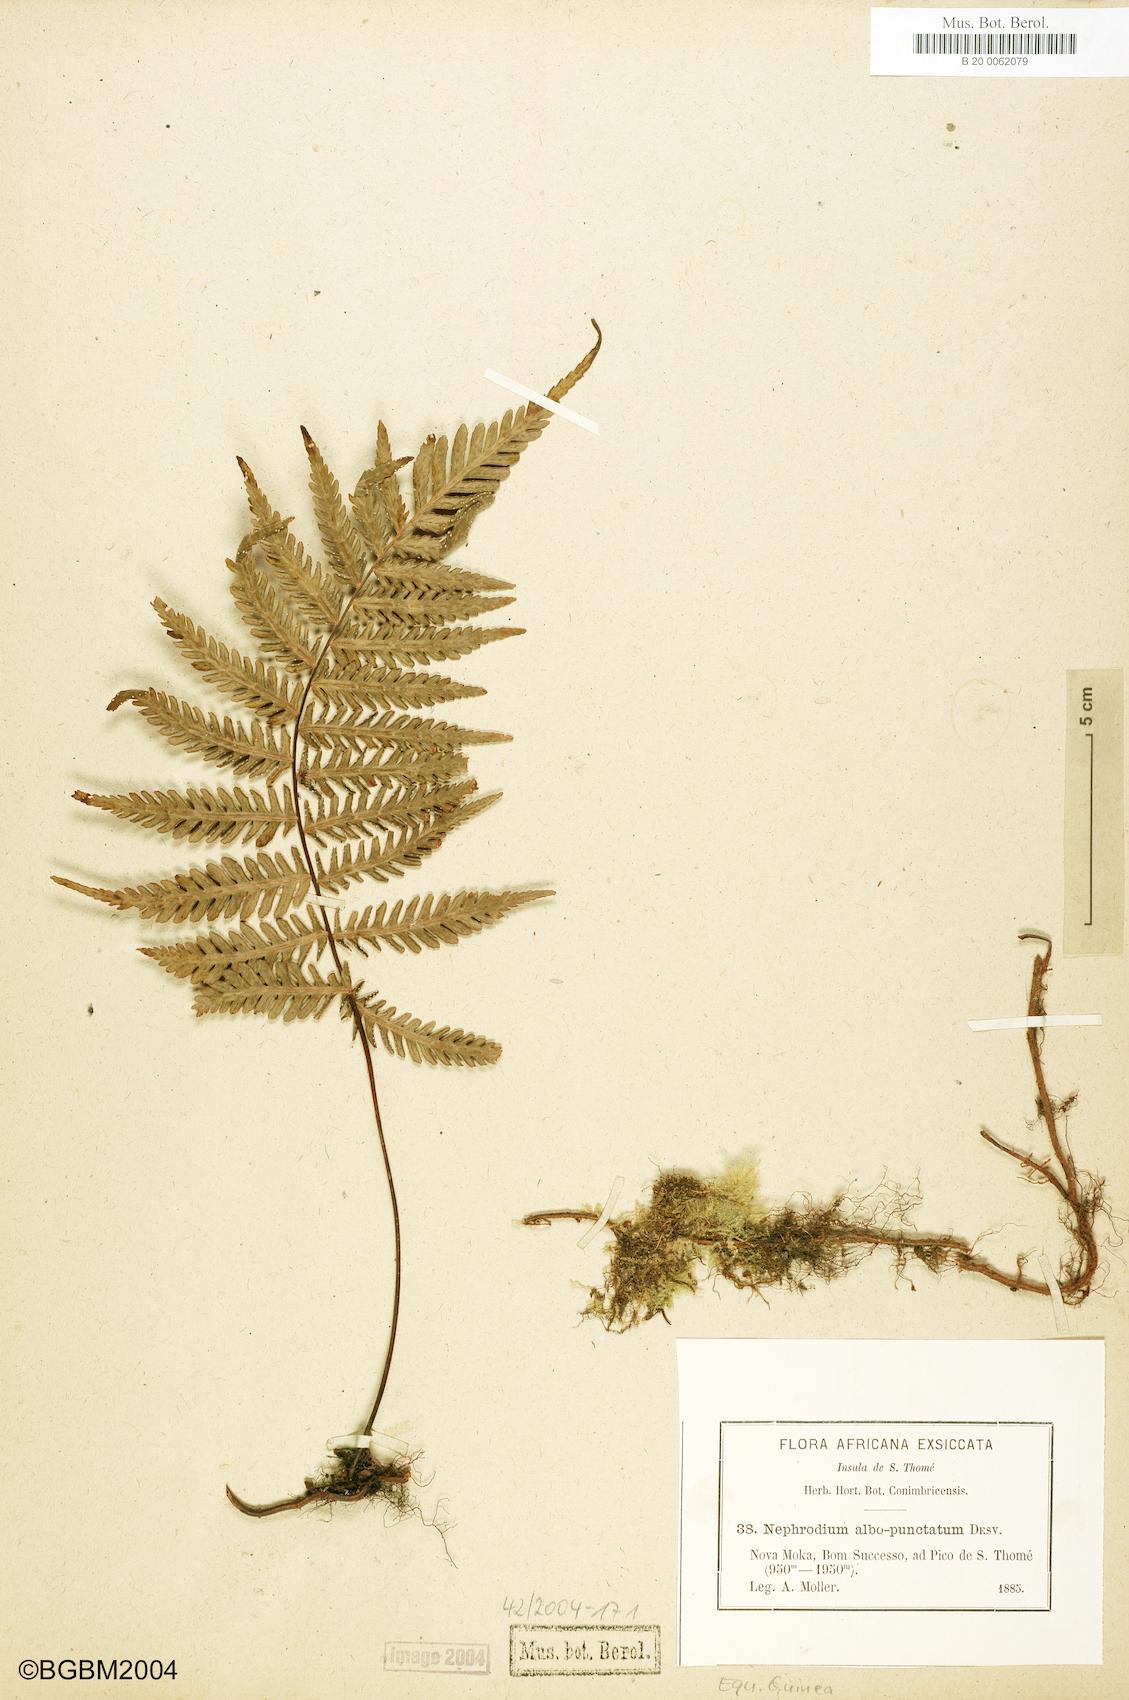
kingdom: Plantae
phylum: Tracheophyta
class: Polypodiopsida
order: Polypodiales
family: Tectariaceae
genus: Arthropteris
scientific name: Arthropteris orientalis
